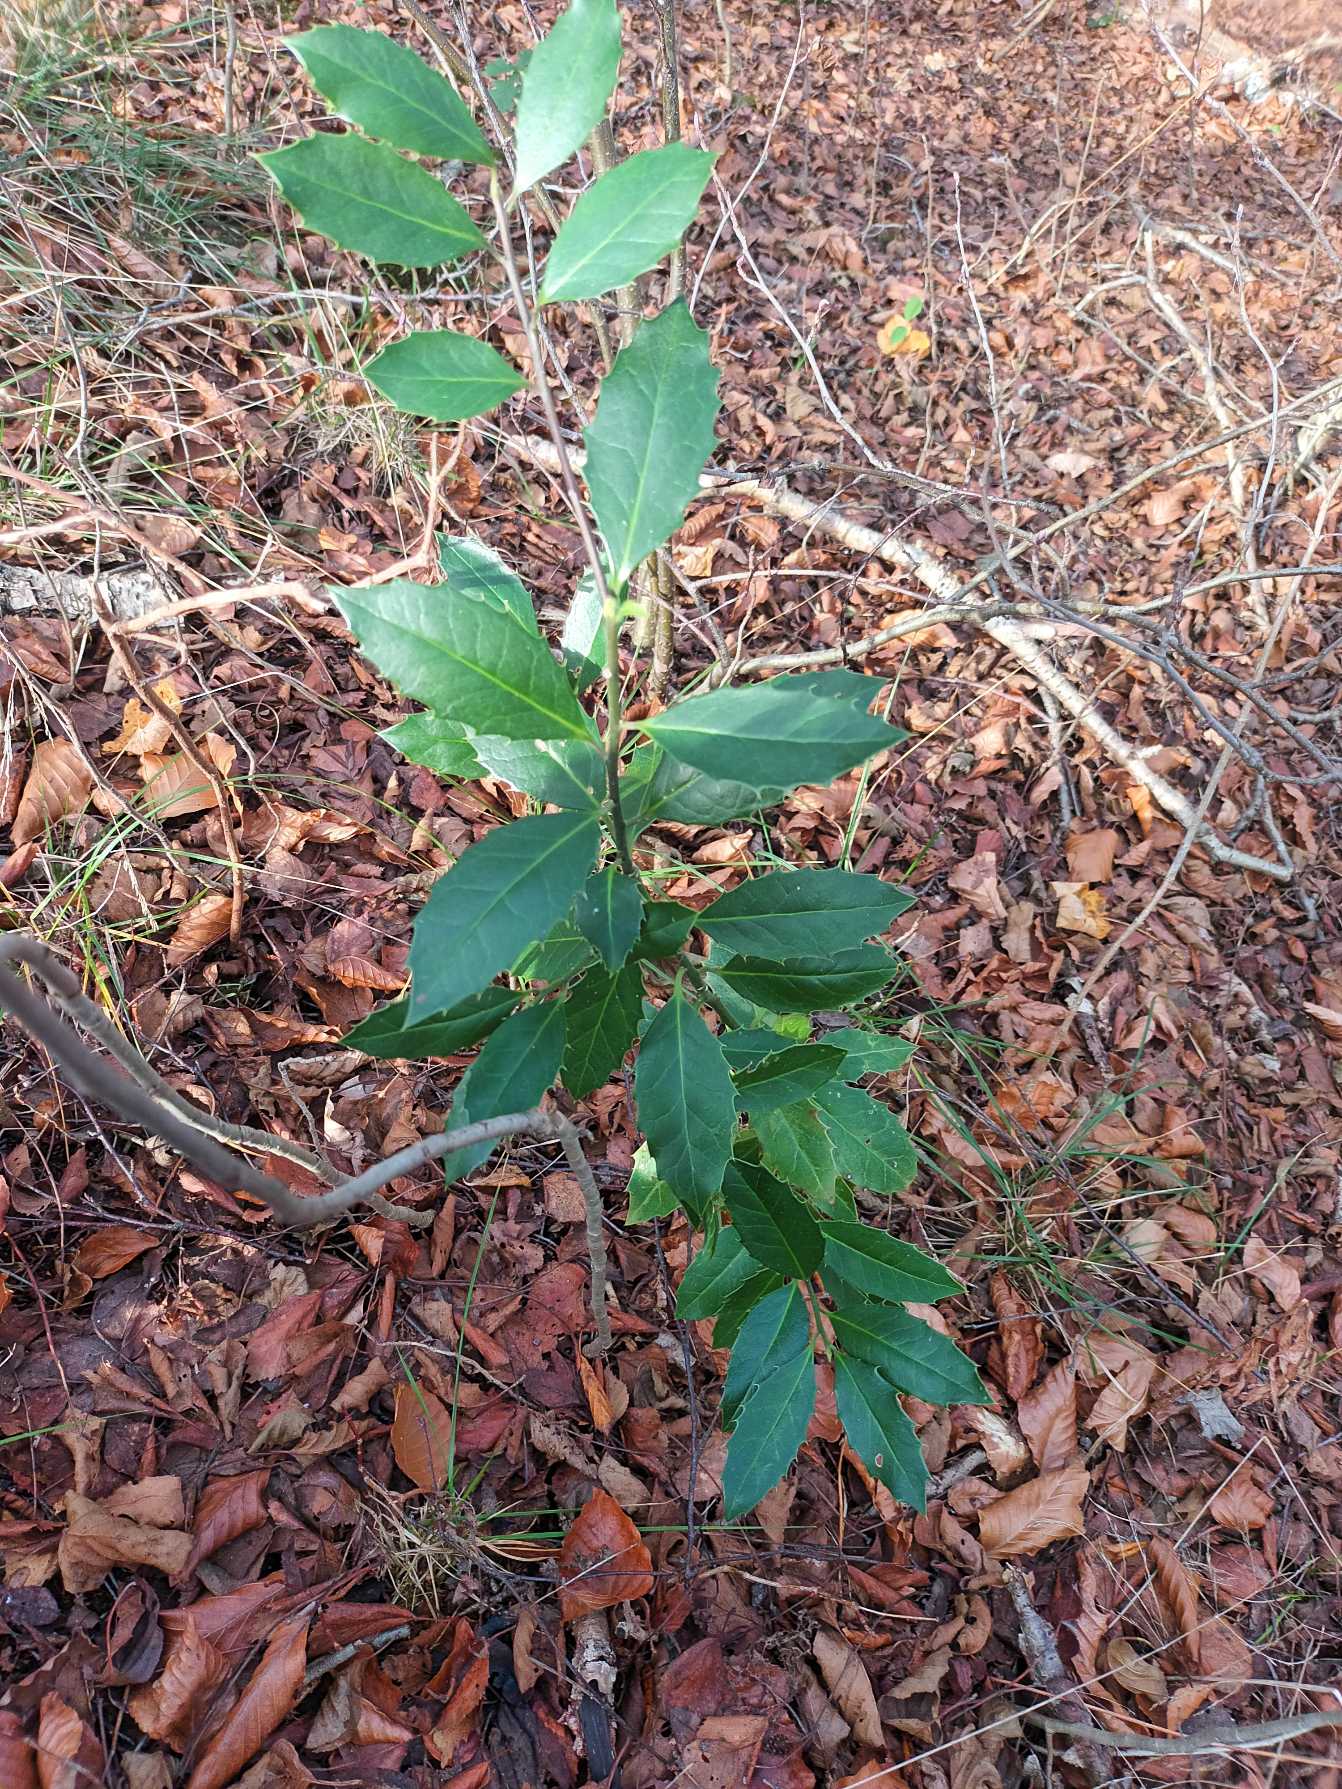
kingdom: Plantae
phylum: Tracheophyta
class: Magnoliopsida
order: Aquifoliales
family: Aquifoliaceae
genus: Ilex
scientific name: Ilex altaclerensis
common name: Storbladet kristtorn
